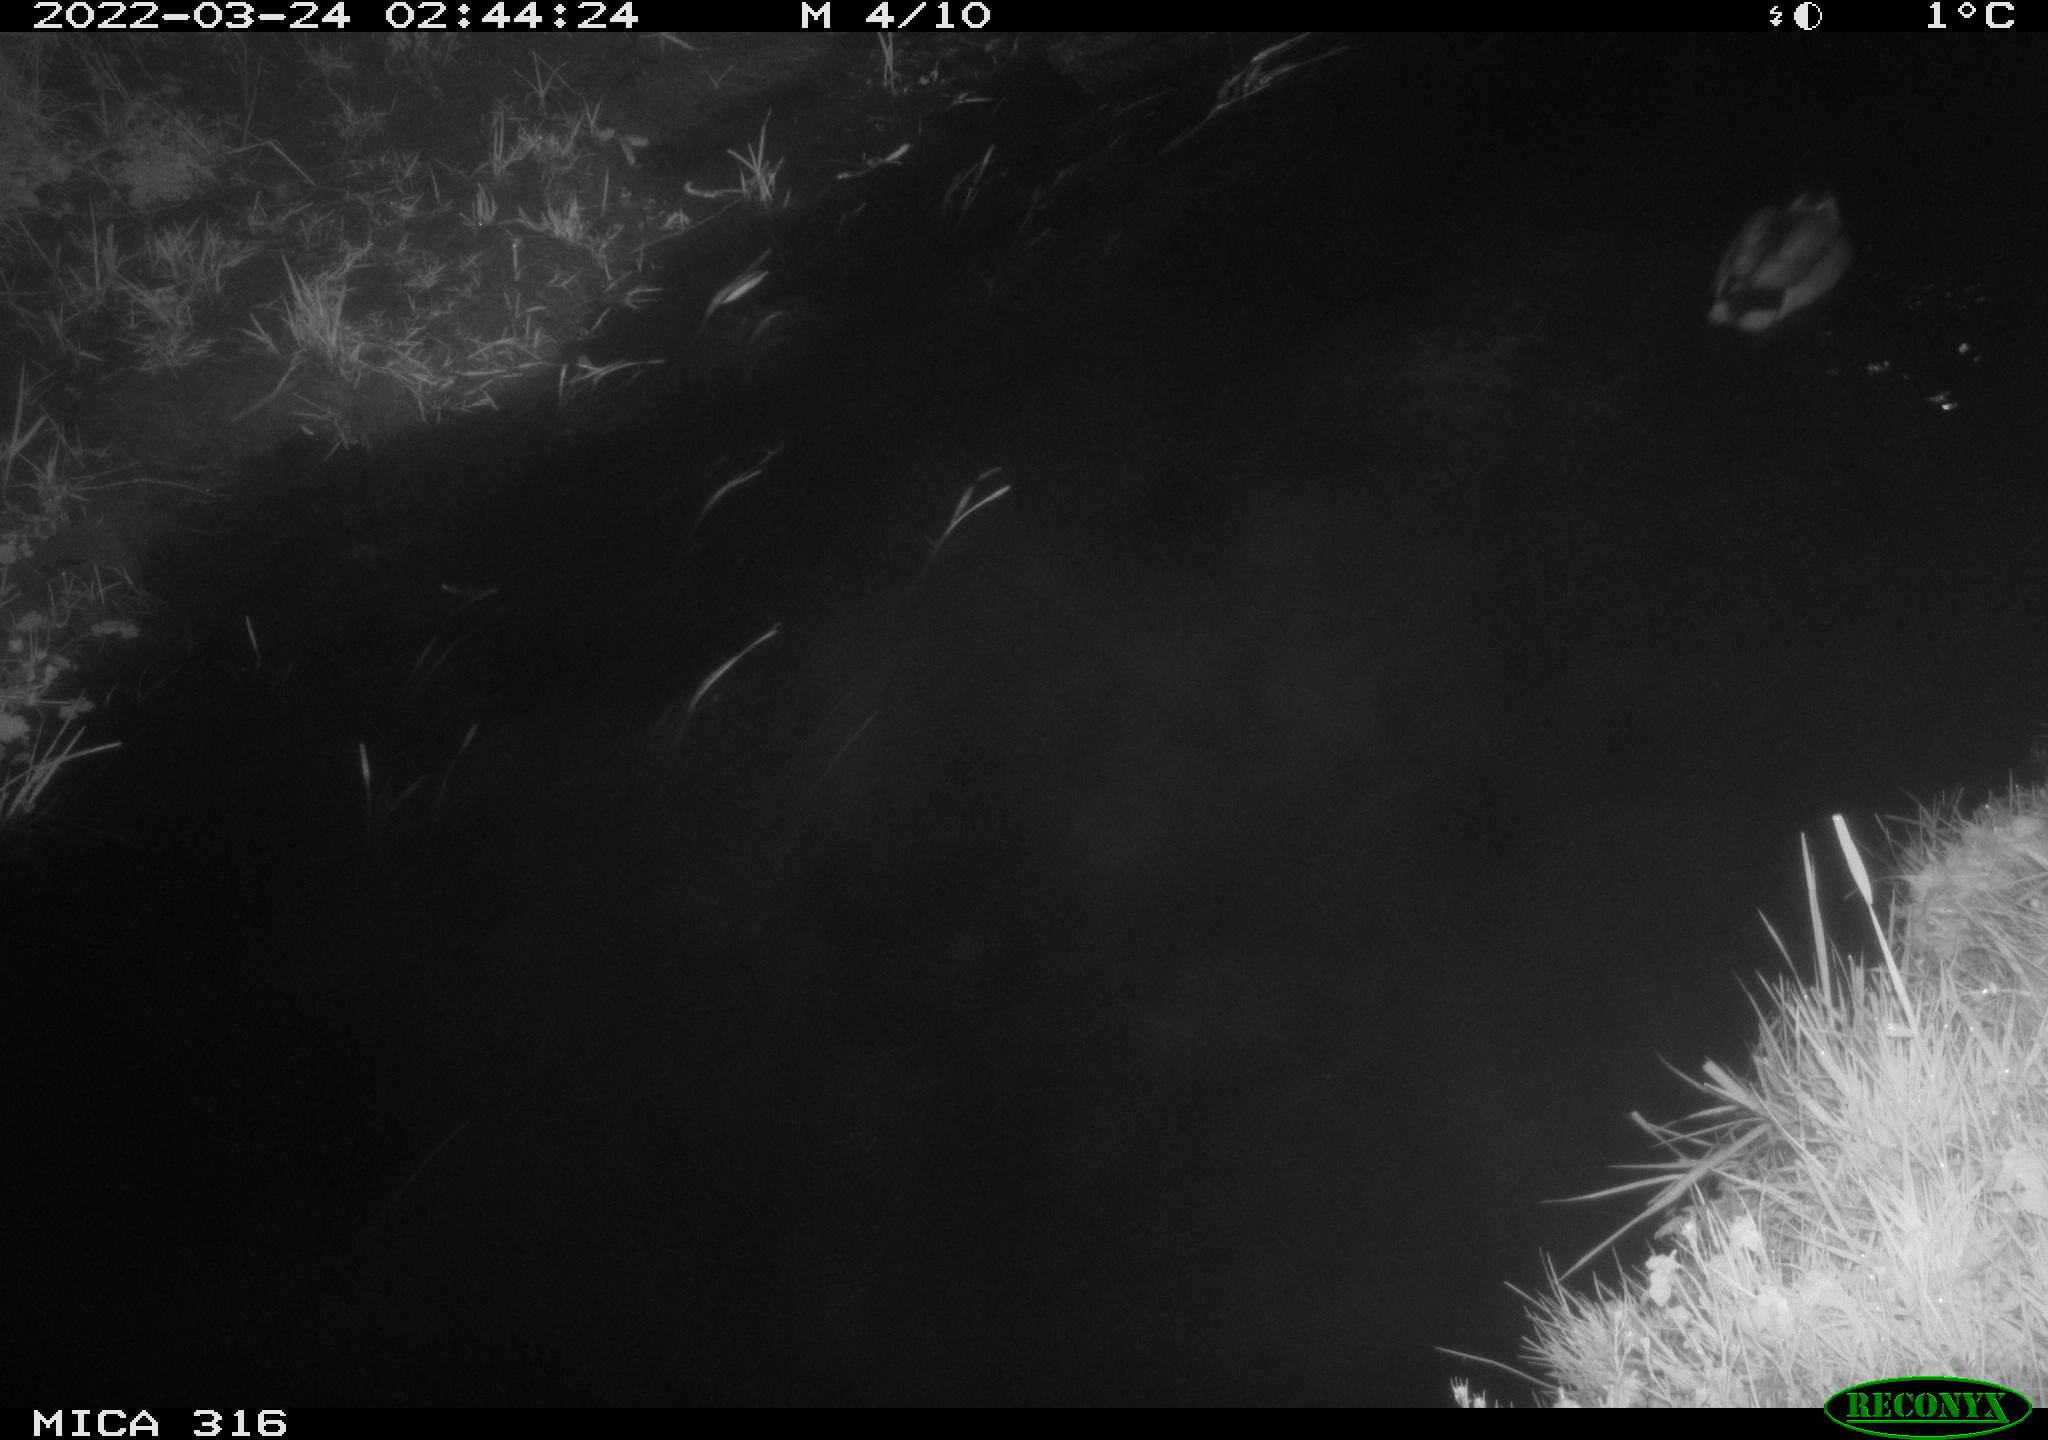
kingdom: Animalia
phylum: Chordata
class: Aves
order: Anseriformes
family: Anatidae
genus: Anas
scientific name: Anas platyrhynchos
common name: Mallard
